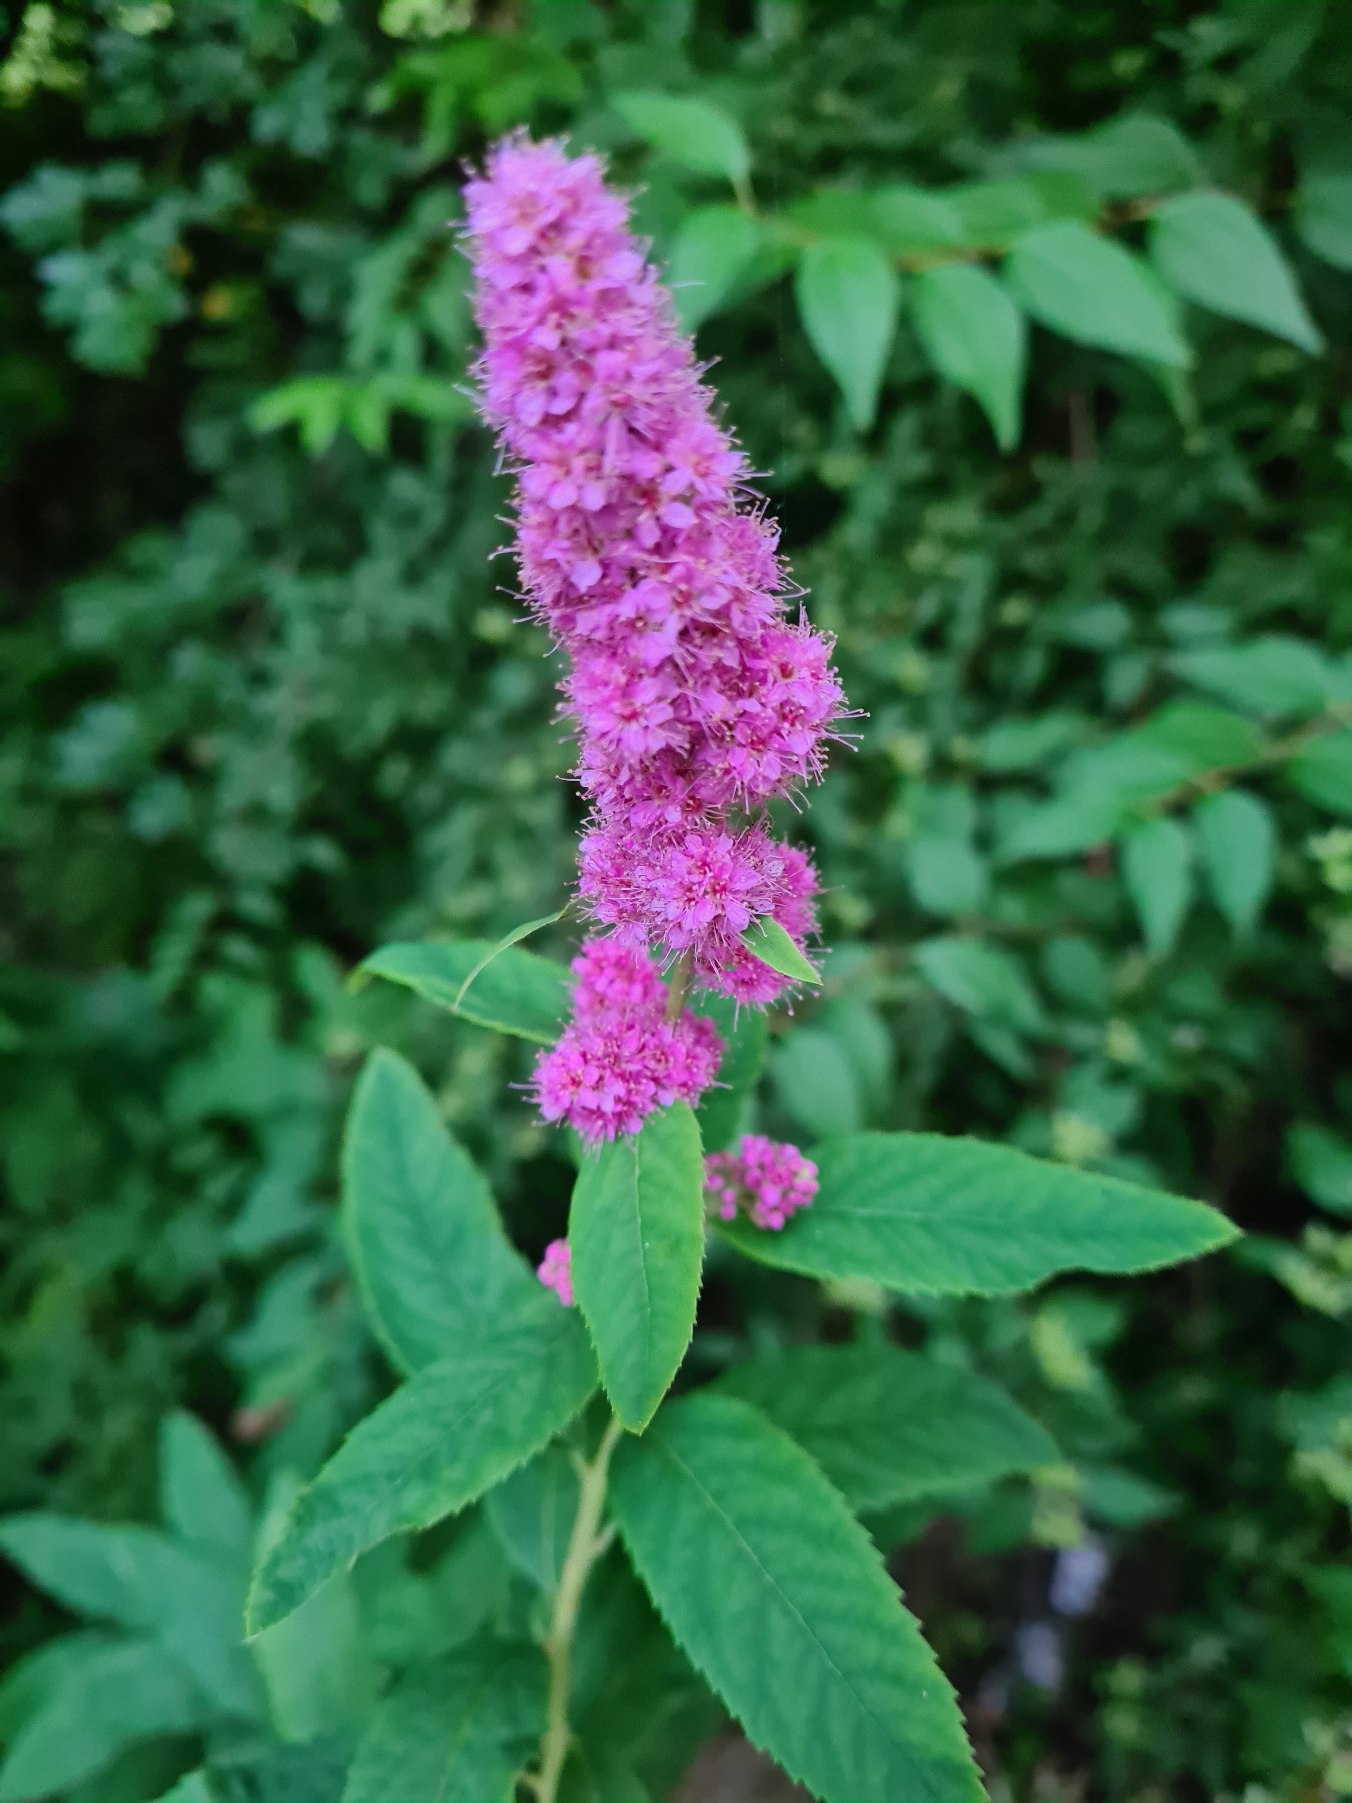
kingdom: Plantae
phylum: Tracheophyta
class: Magnoliopsida
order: Rosales
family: Rosaceae
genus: Spiraea
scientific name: Spiraea
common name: Spiræaslægten
